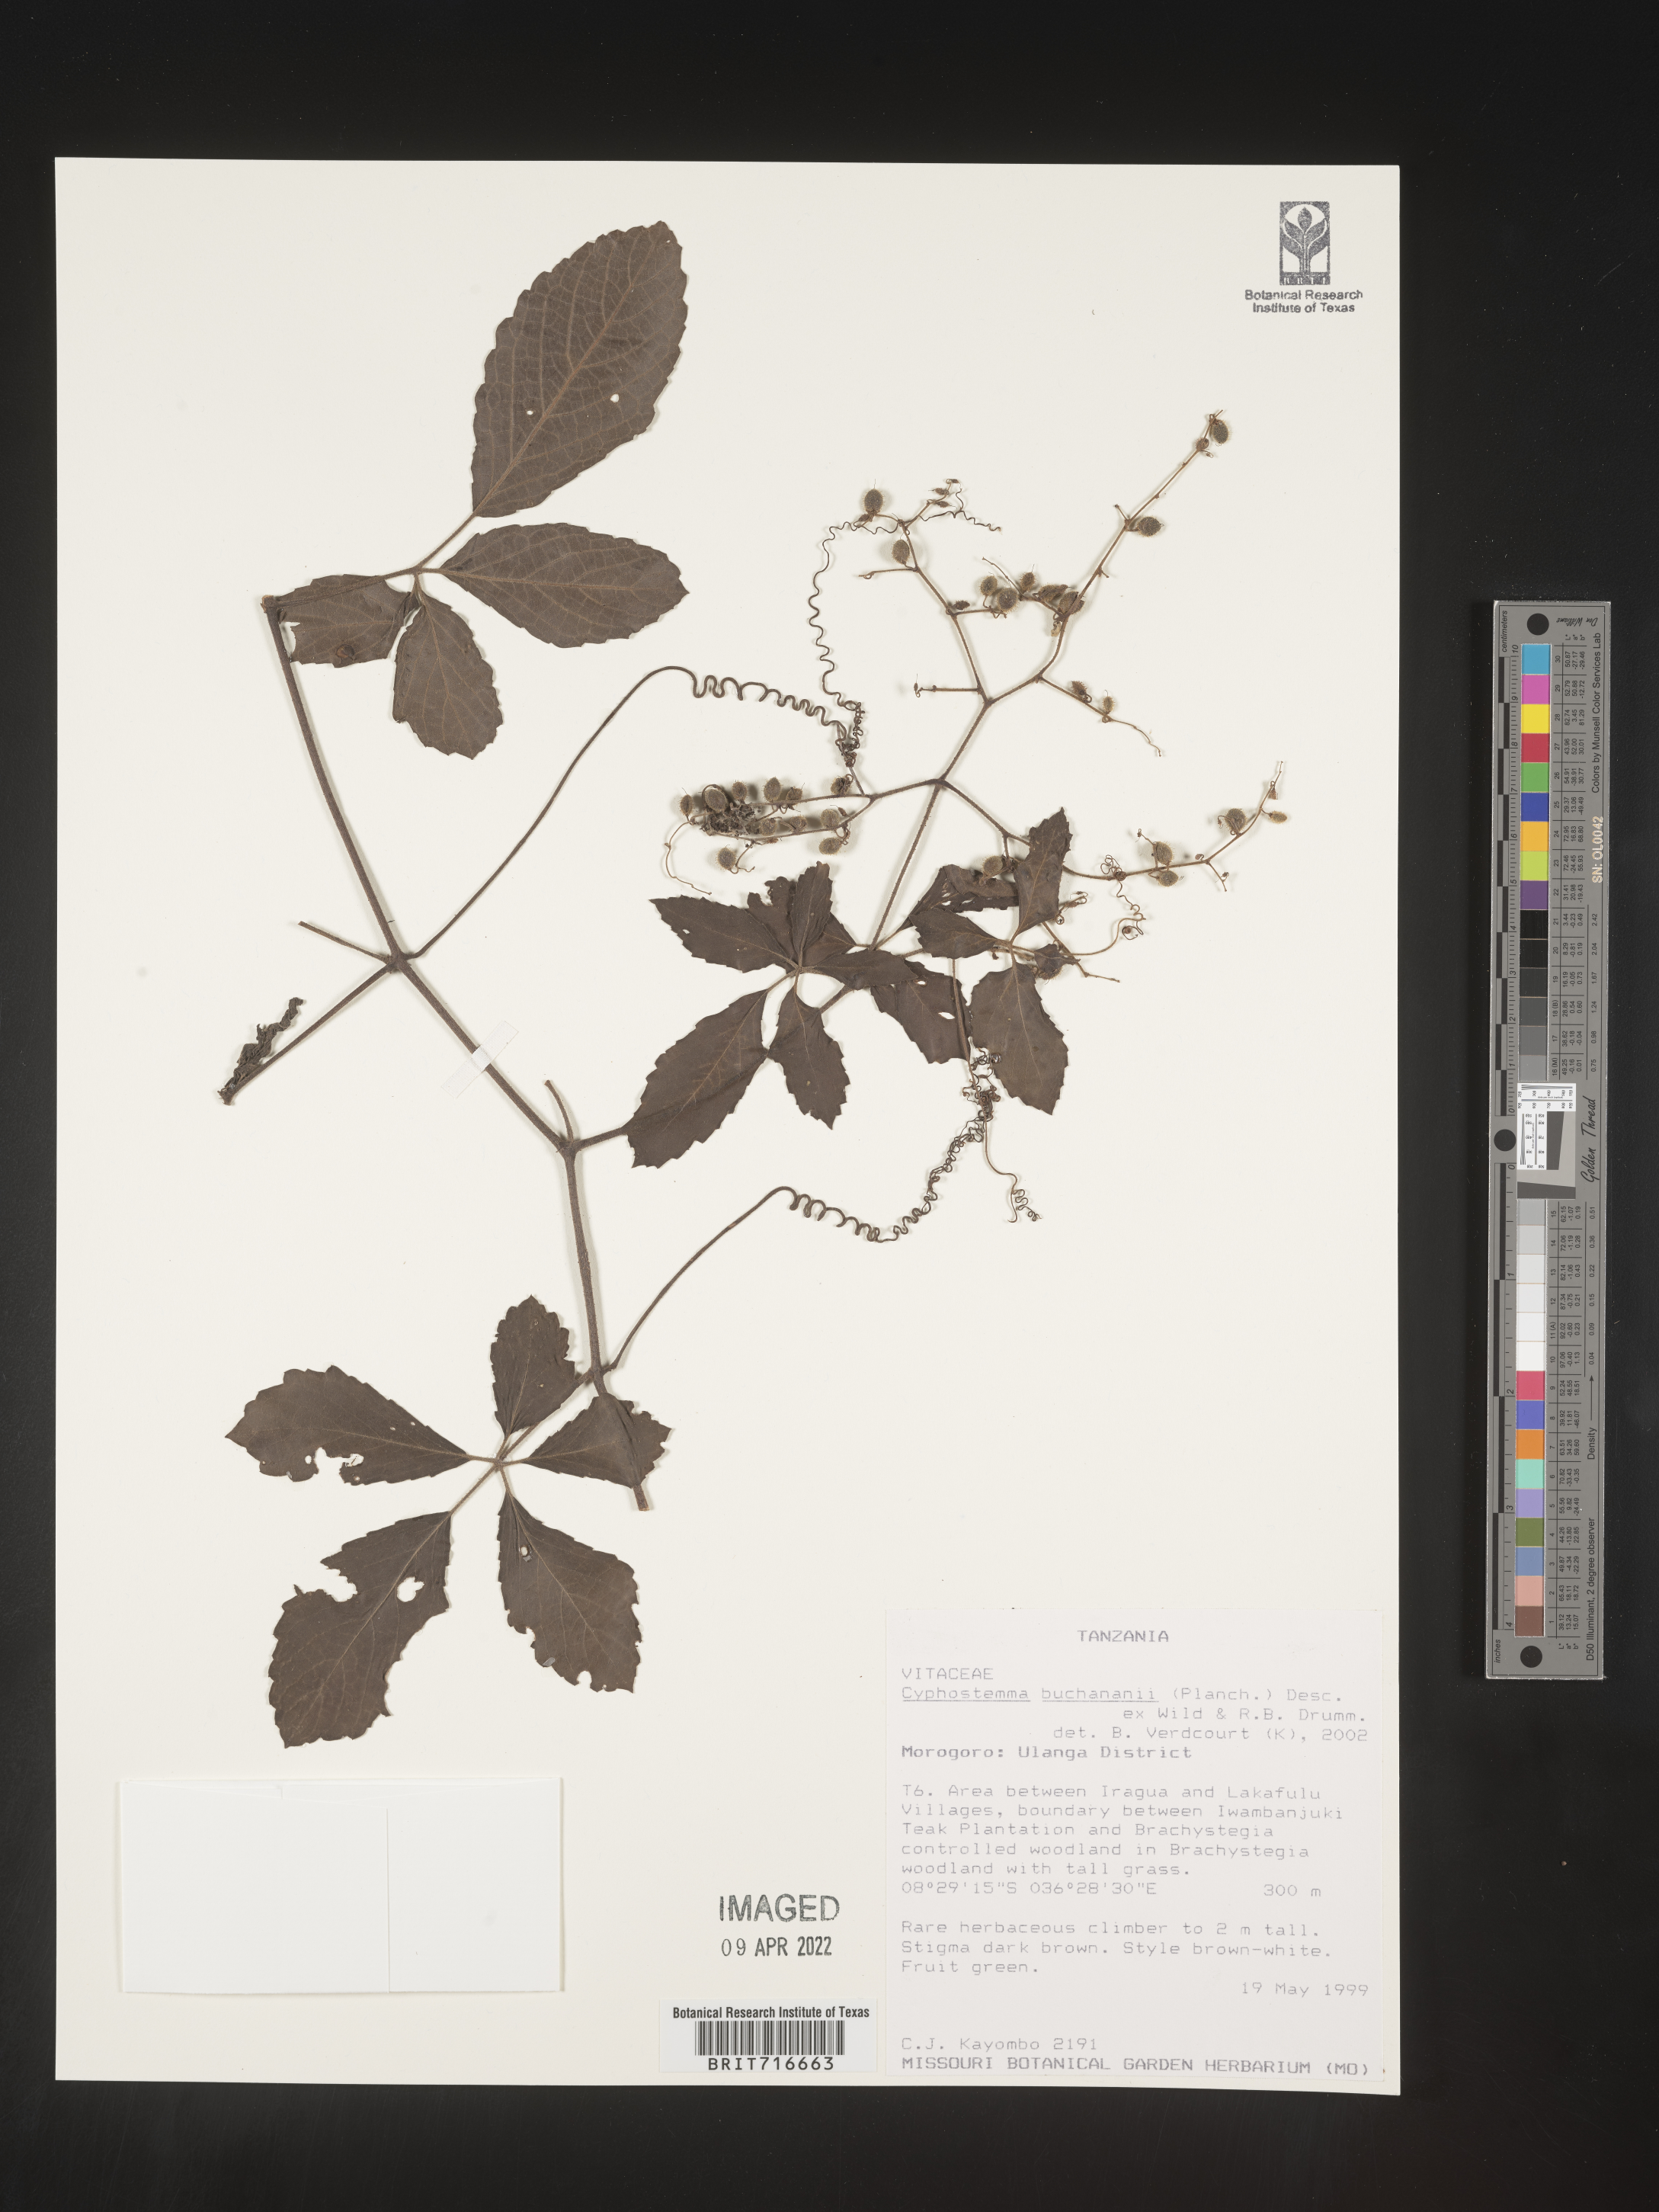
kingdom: Plantae
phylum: Tracheophyta
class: Magnoliopsida
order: Vitales
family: Vitaceae
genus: Cyphostemma
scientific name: Cyphostemma
